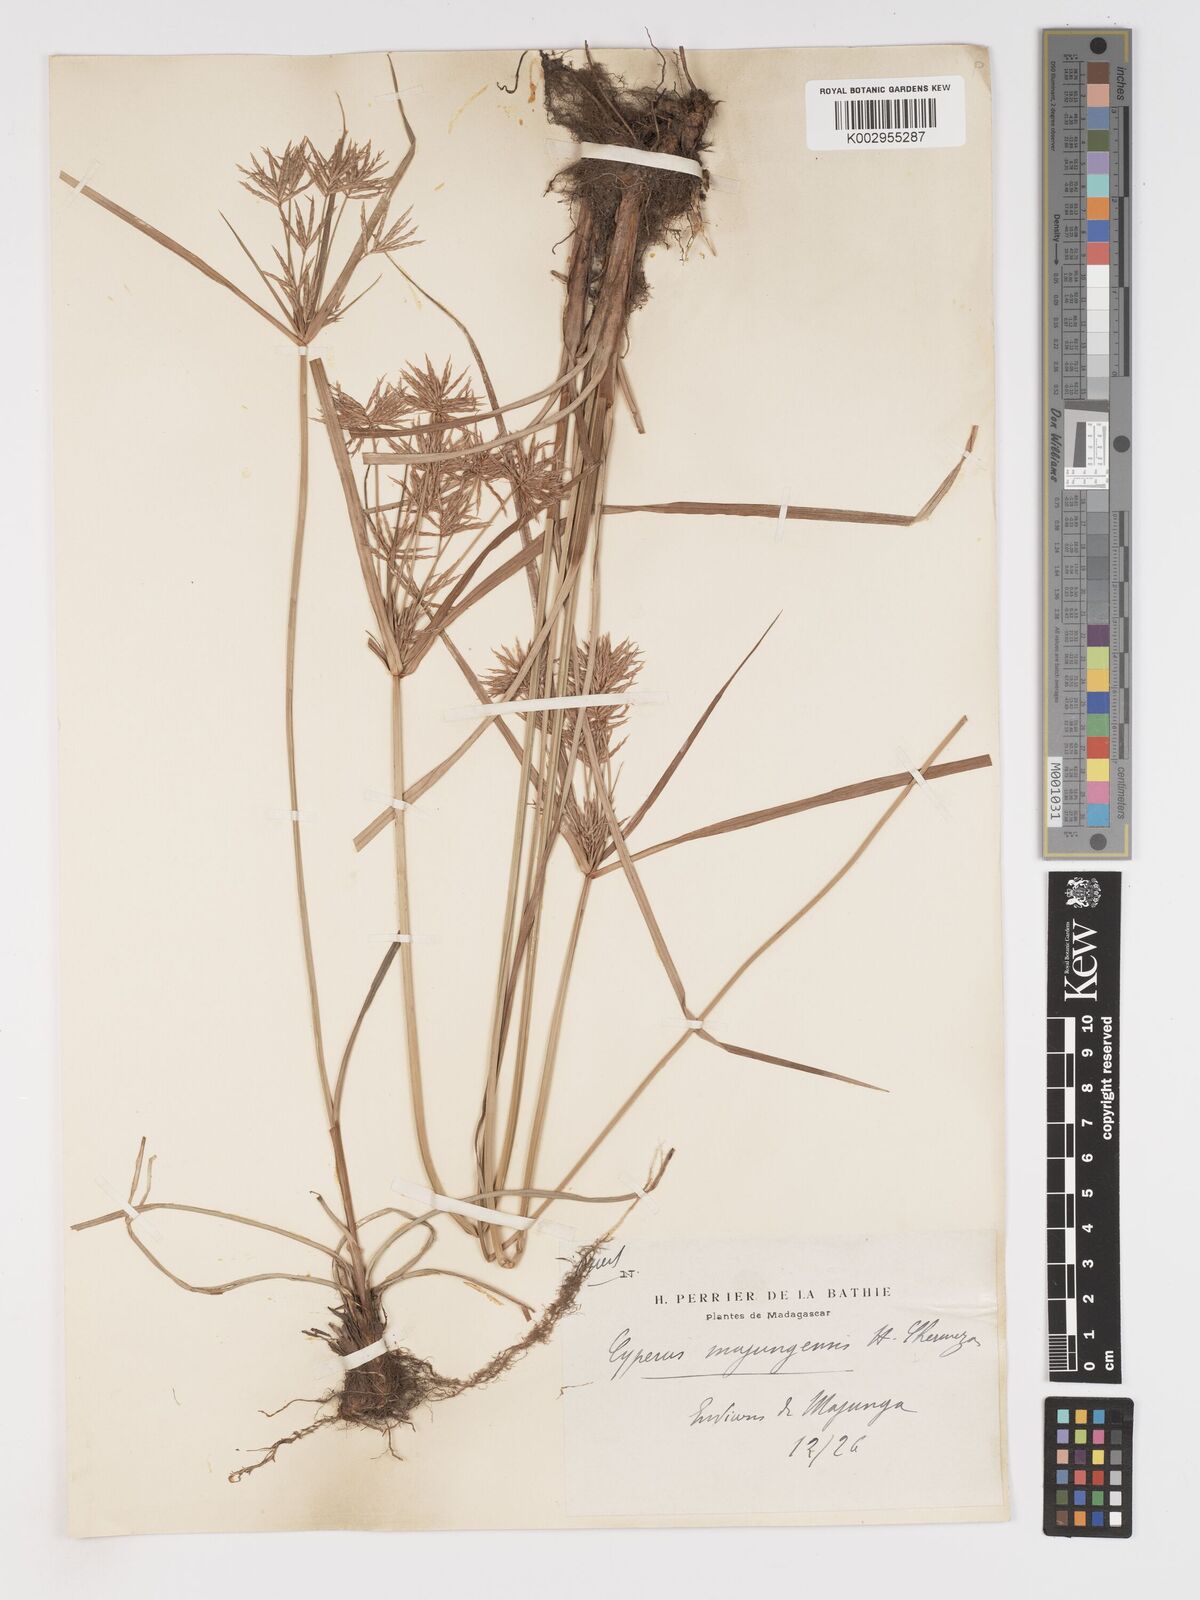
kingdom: Plantae
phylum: Tracheophyta
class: Liliopsida
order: Poales
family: Cyperaceae
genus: Cyperus
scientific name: Cyperus tenuiculmis
